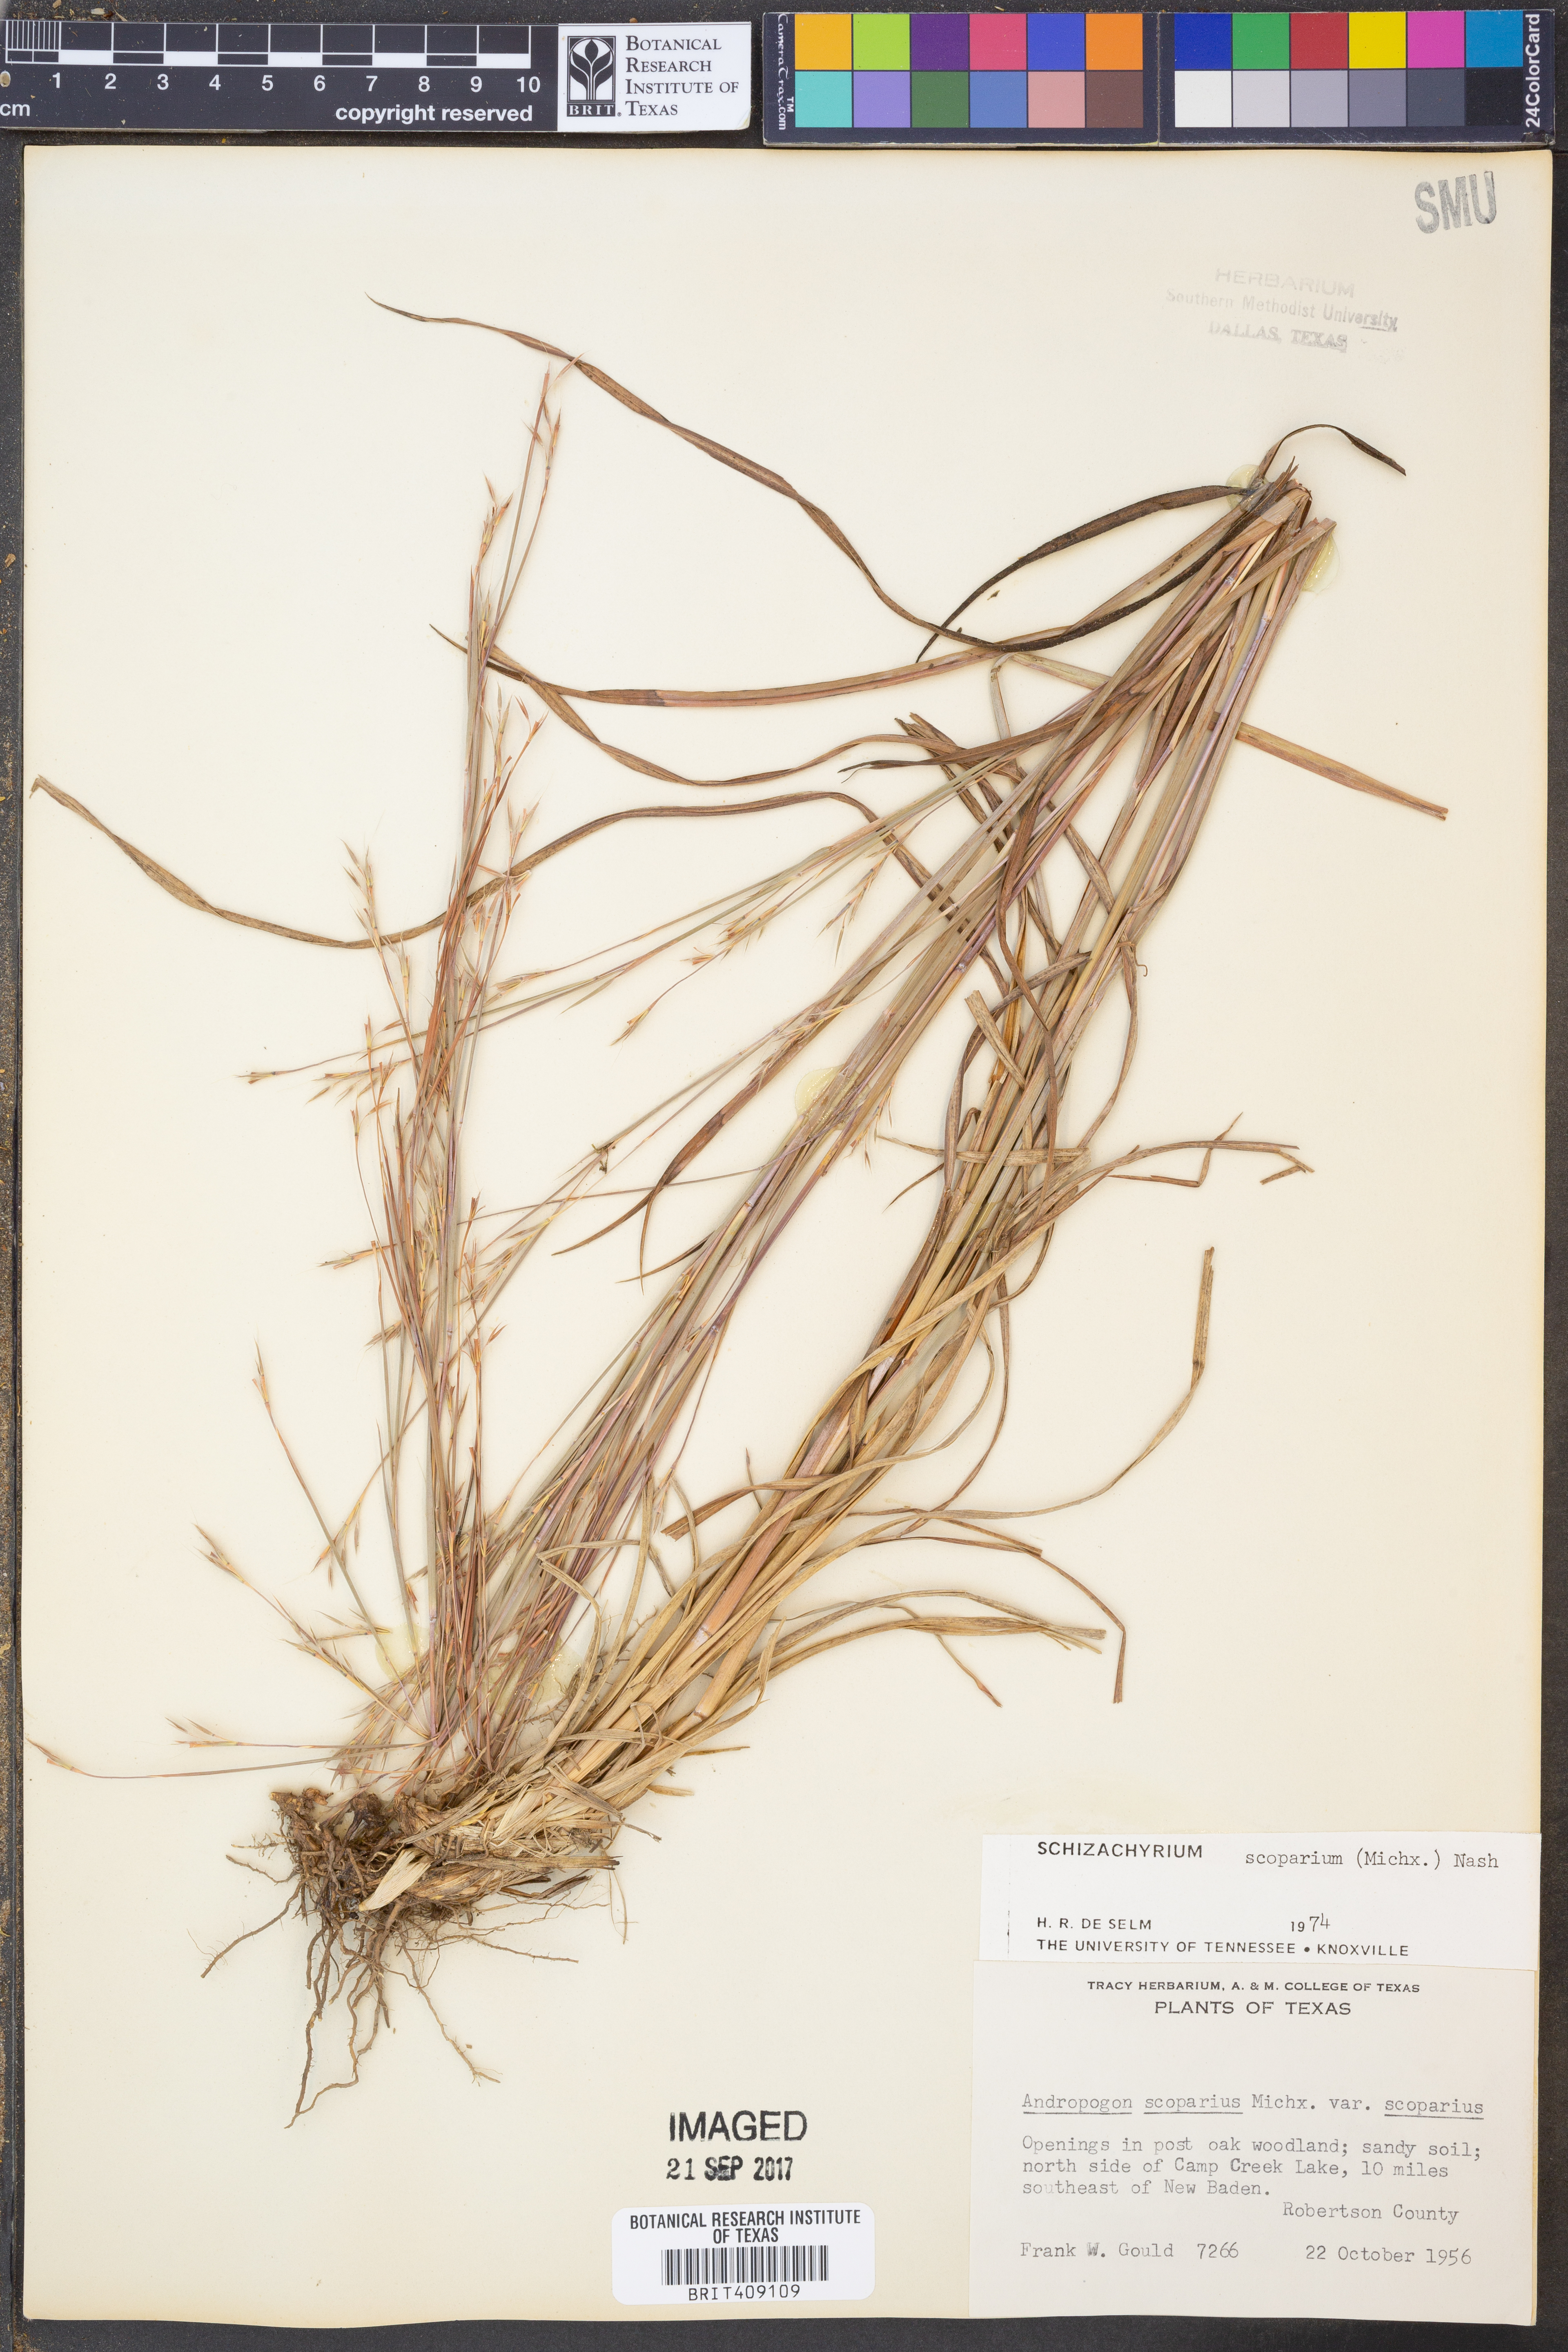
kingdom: Plantae
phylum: Tracheophyta
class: Liliopsida
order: Poales
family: Poaceae
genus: Schizachyrium
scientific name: Schizachyrium scoparium
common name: Little bluestem
